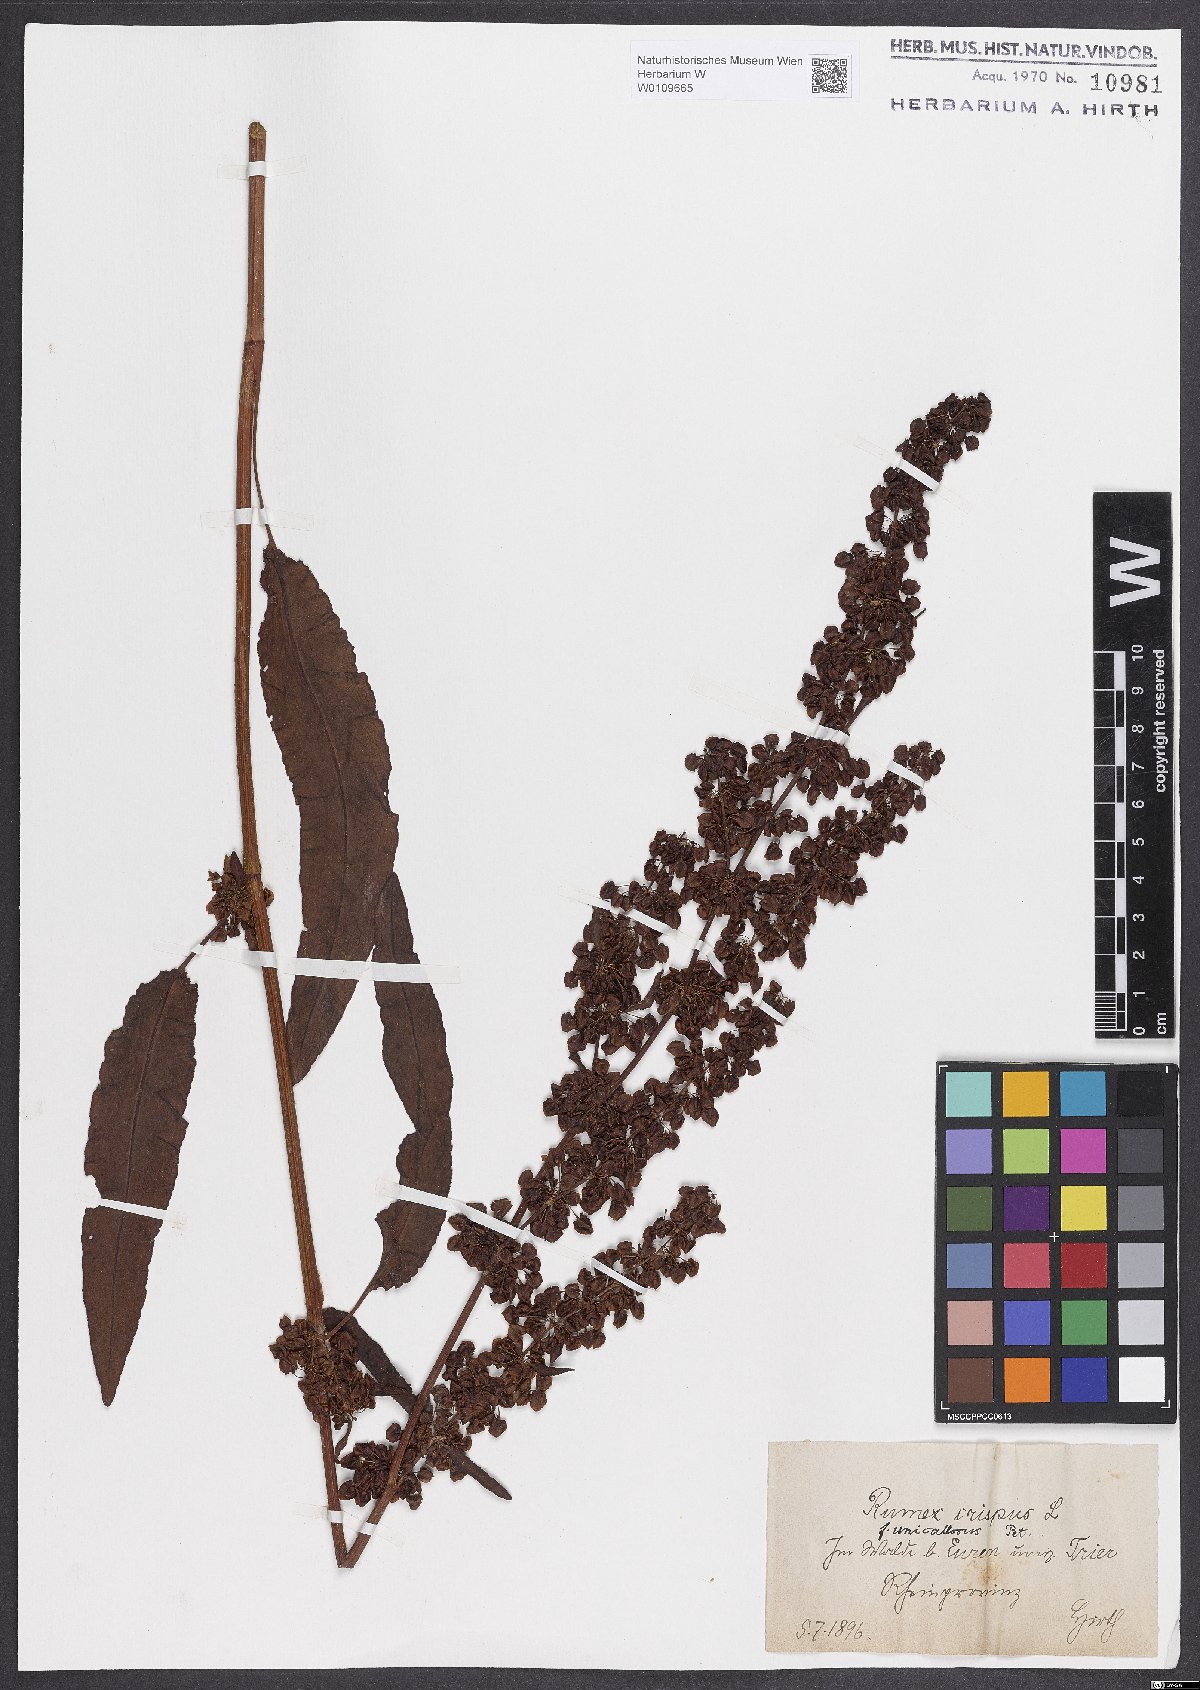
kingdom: Plantae
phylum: Tracheophyta
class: Magnoliopsida
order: Caryophyllales
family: Polygonaceae
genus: Rumex
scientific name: Rumex crispus
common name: Curled dock
